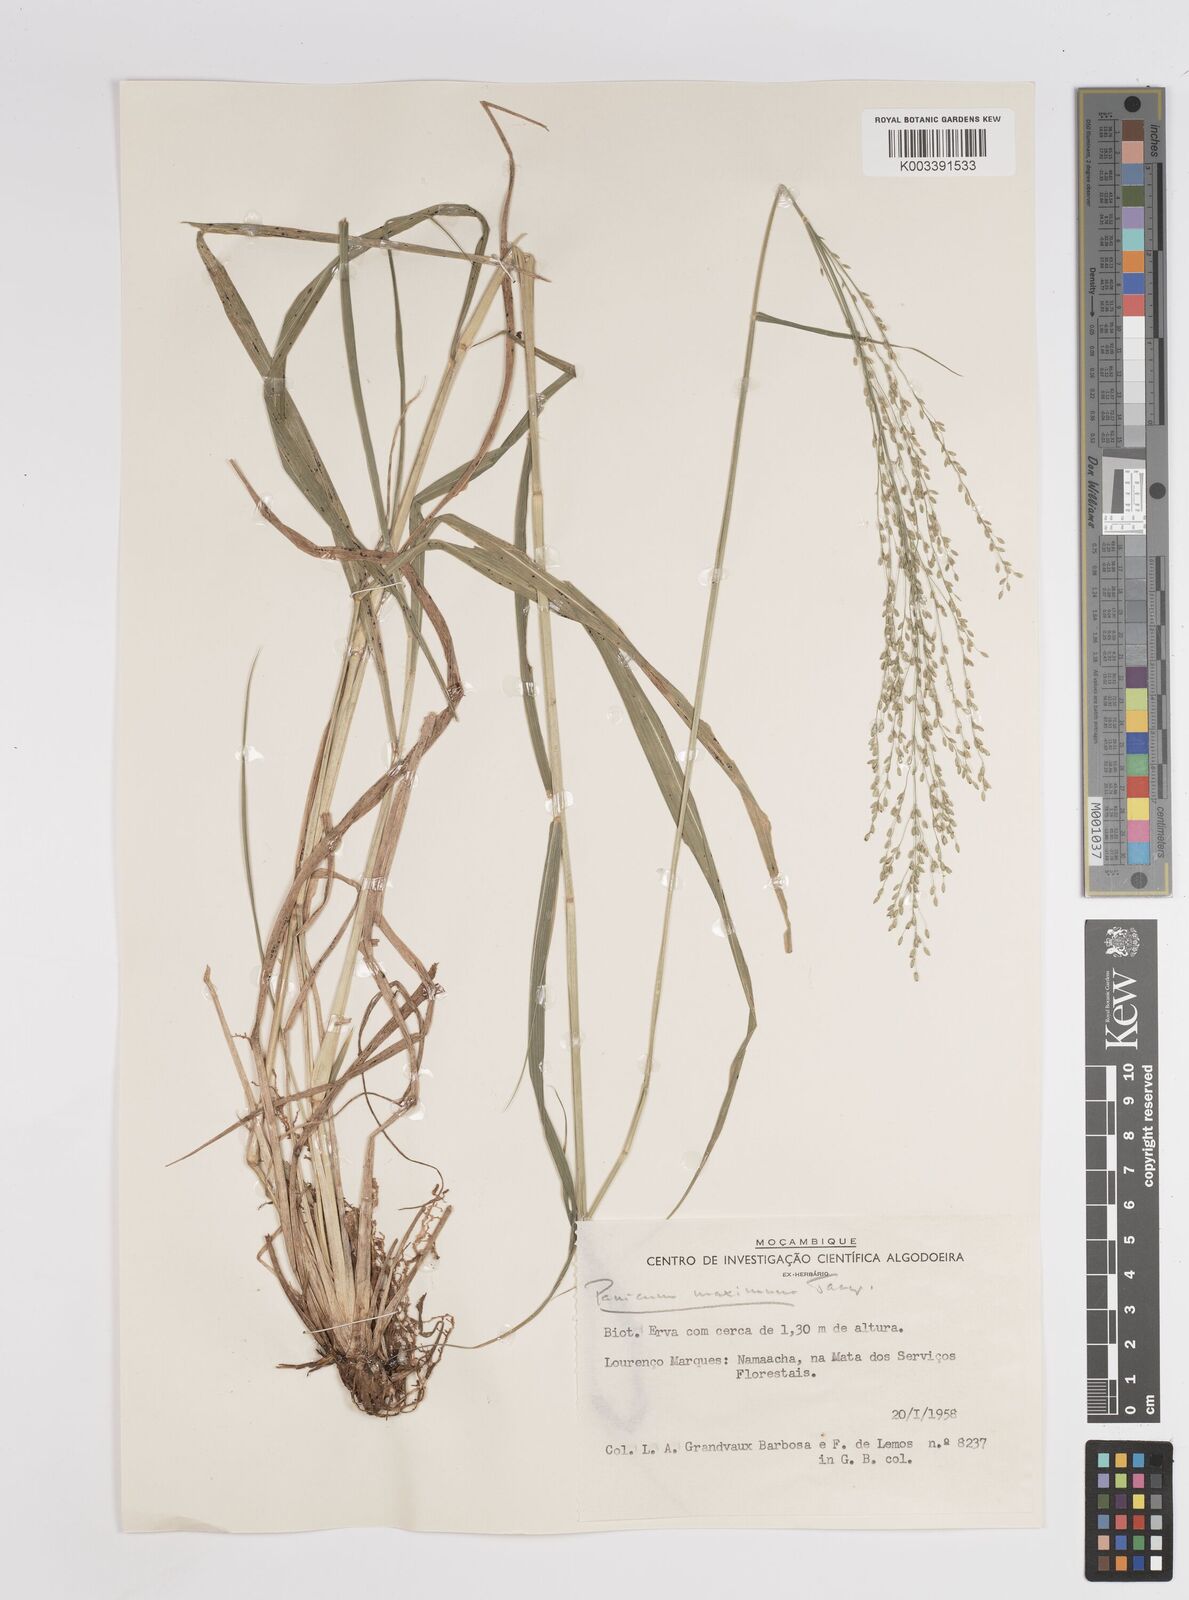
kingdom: Plantae
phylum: Tracheophyta
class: Liliopsida
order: Poales
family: Poaceae
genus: Megathyrsus
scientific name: Megathyrsus maximus
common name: Guineagrass
